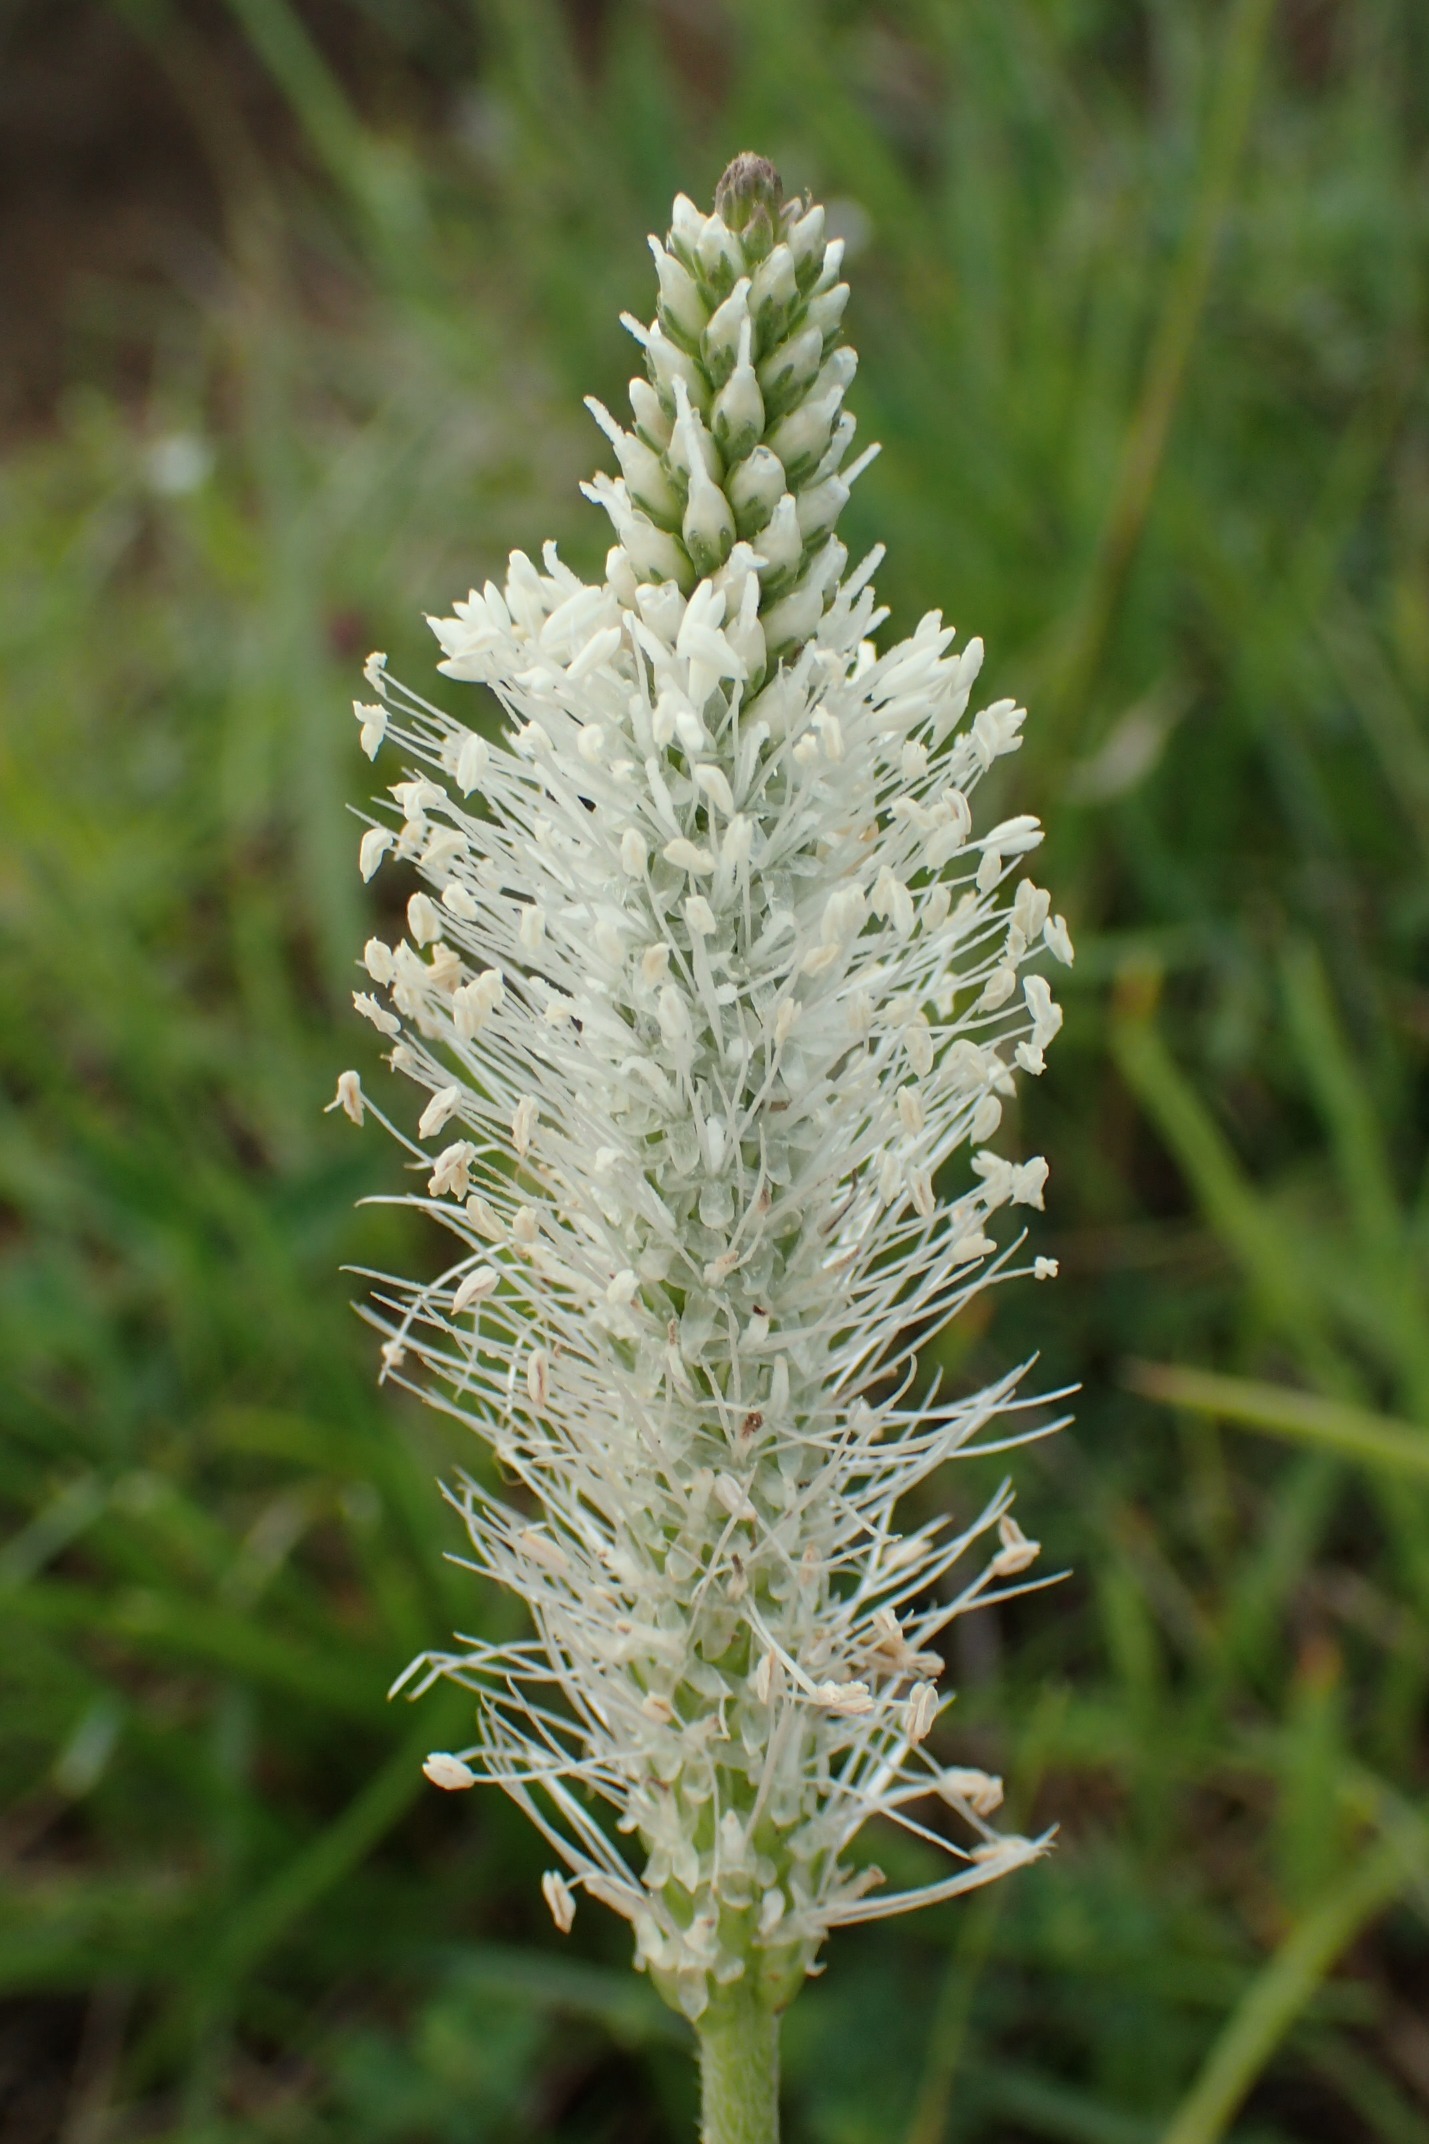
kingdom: Plantae
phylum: Tracheophyta
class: Magnoliopsida
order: Lamiales
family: Plantaginaceae
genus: Plantago
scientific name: Plantago media
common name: Dunet vejbred
